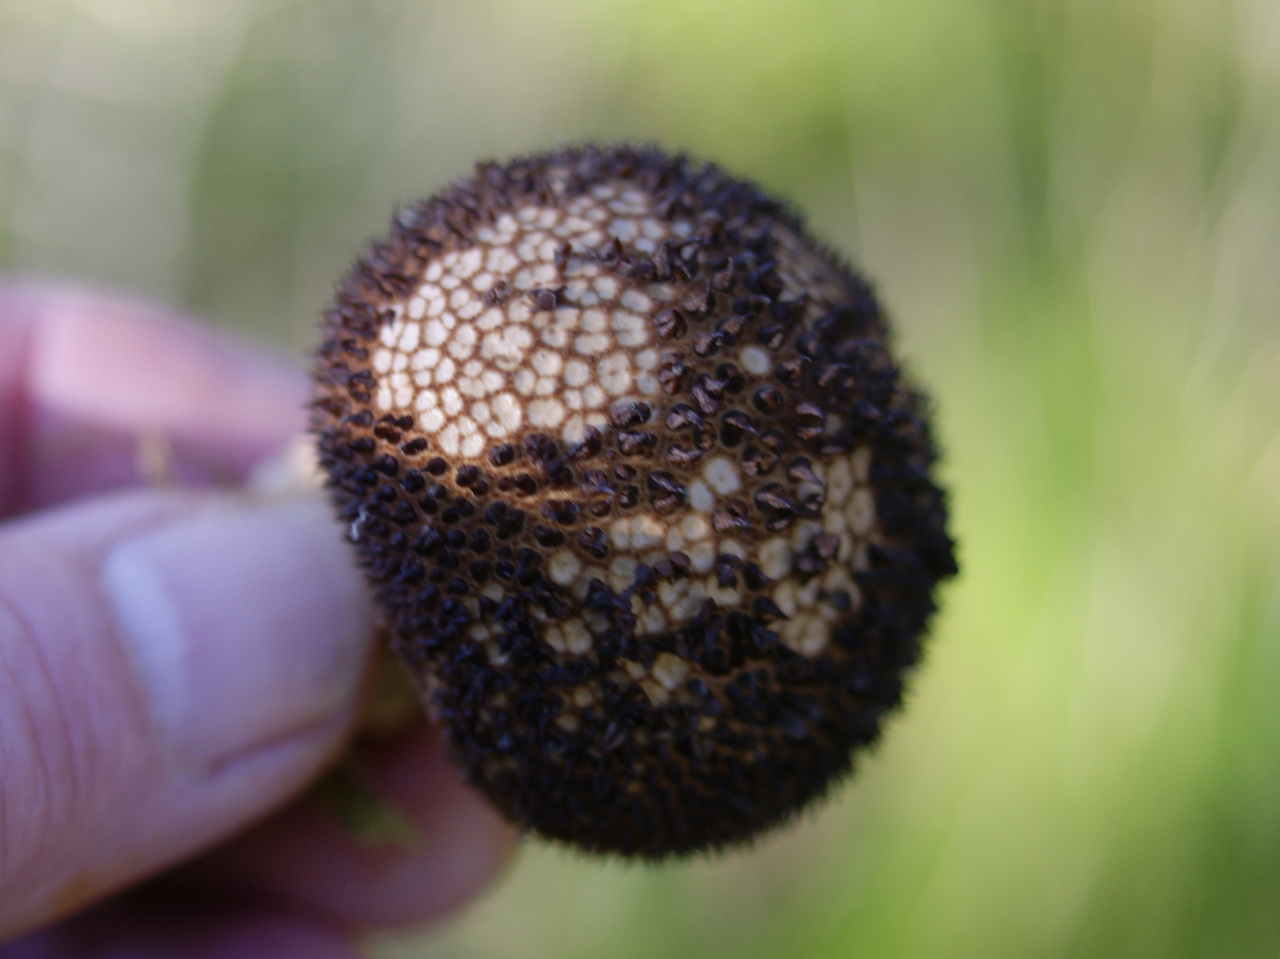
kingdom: Fungi
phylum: Basidiomycota
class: Agaricomycetes
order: Agaricales
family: Lycoperdaceae
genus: Lycoperdon
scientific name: Lycoperdon nigrescens
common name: sortagtig støvbold
